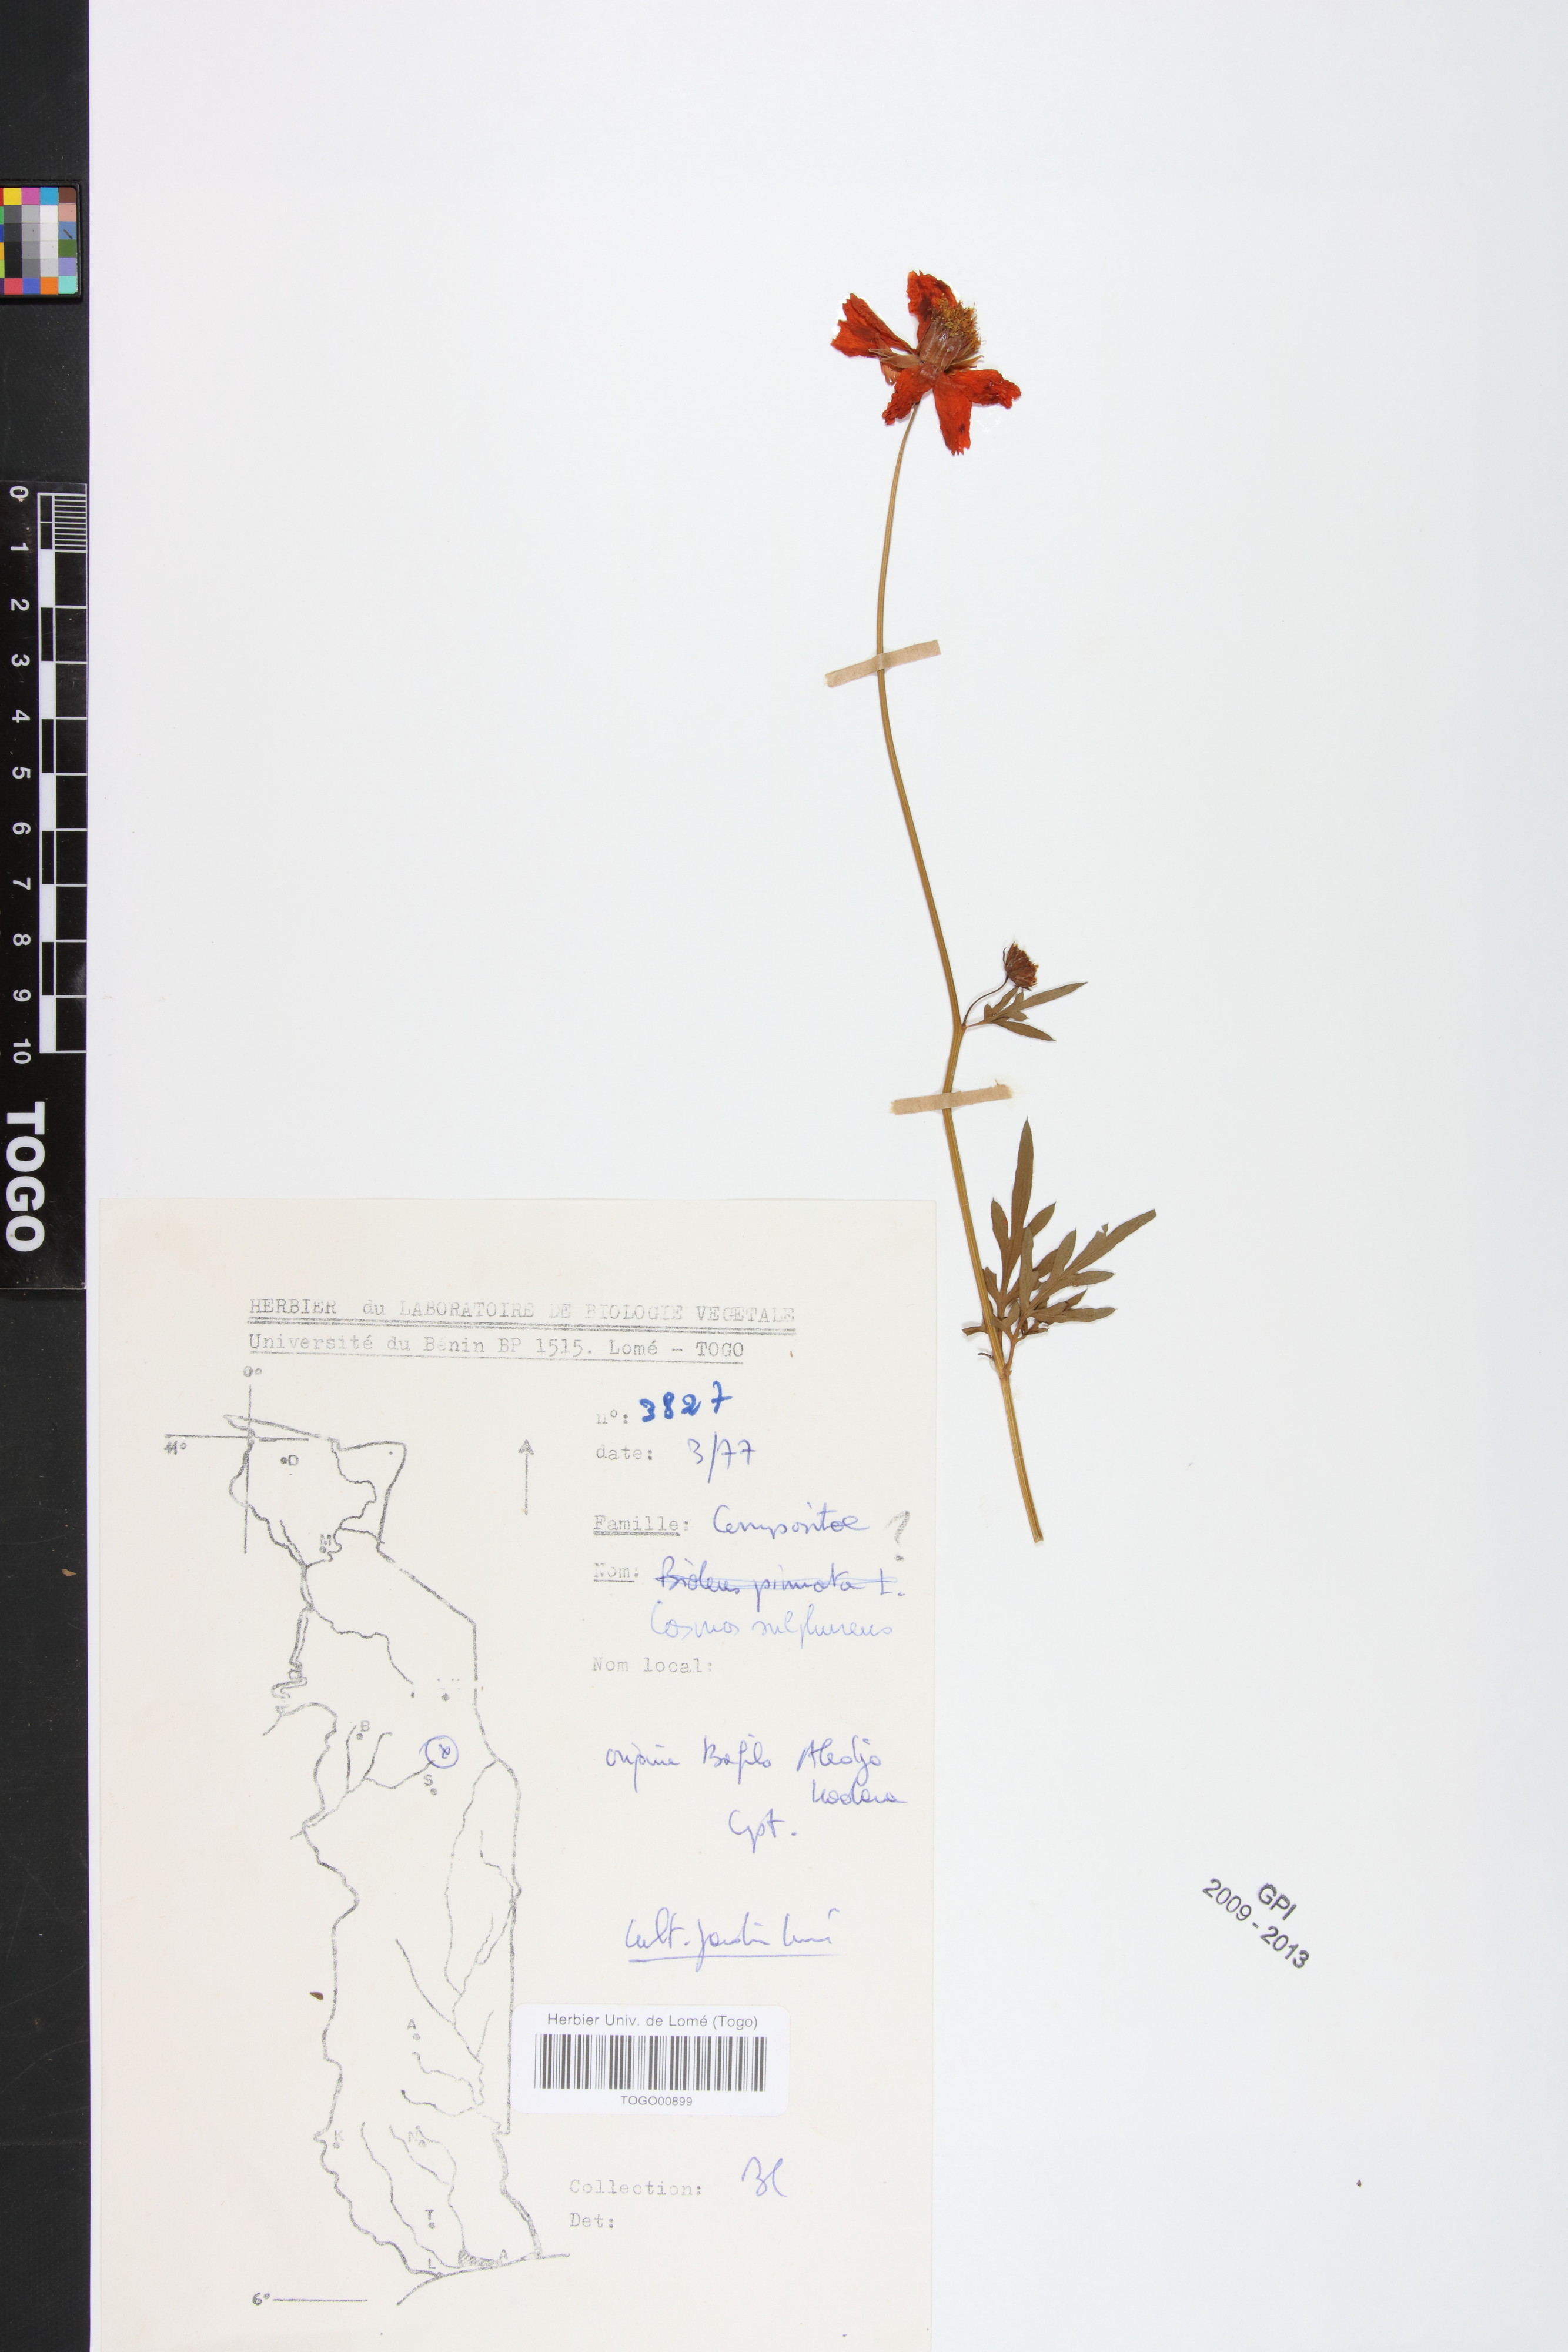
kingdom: Plantae
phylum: Tracheophyta
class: Magnoliopsida
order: Asterales
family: Asteraceae
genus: Cosmos
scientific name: Cosmos sulphureus
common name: Sulphur cosmos
